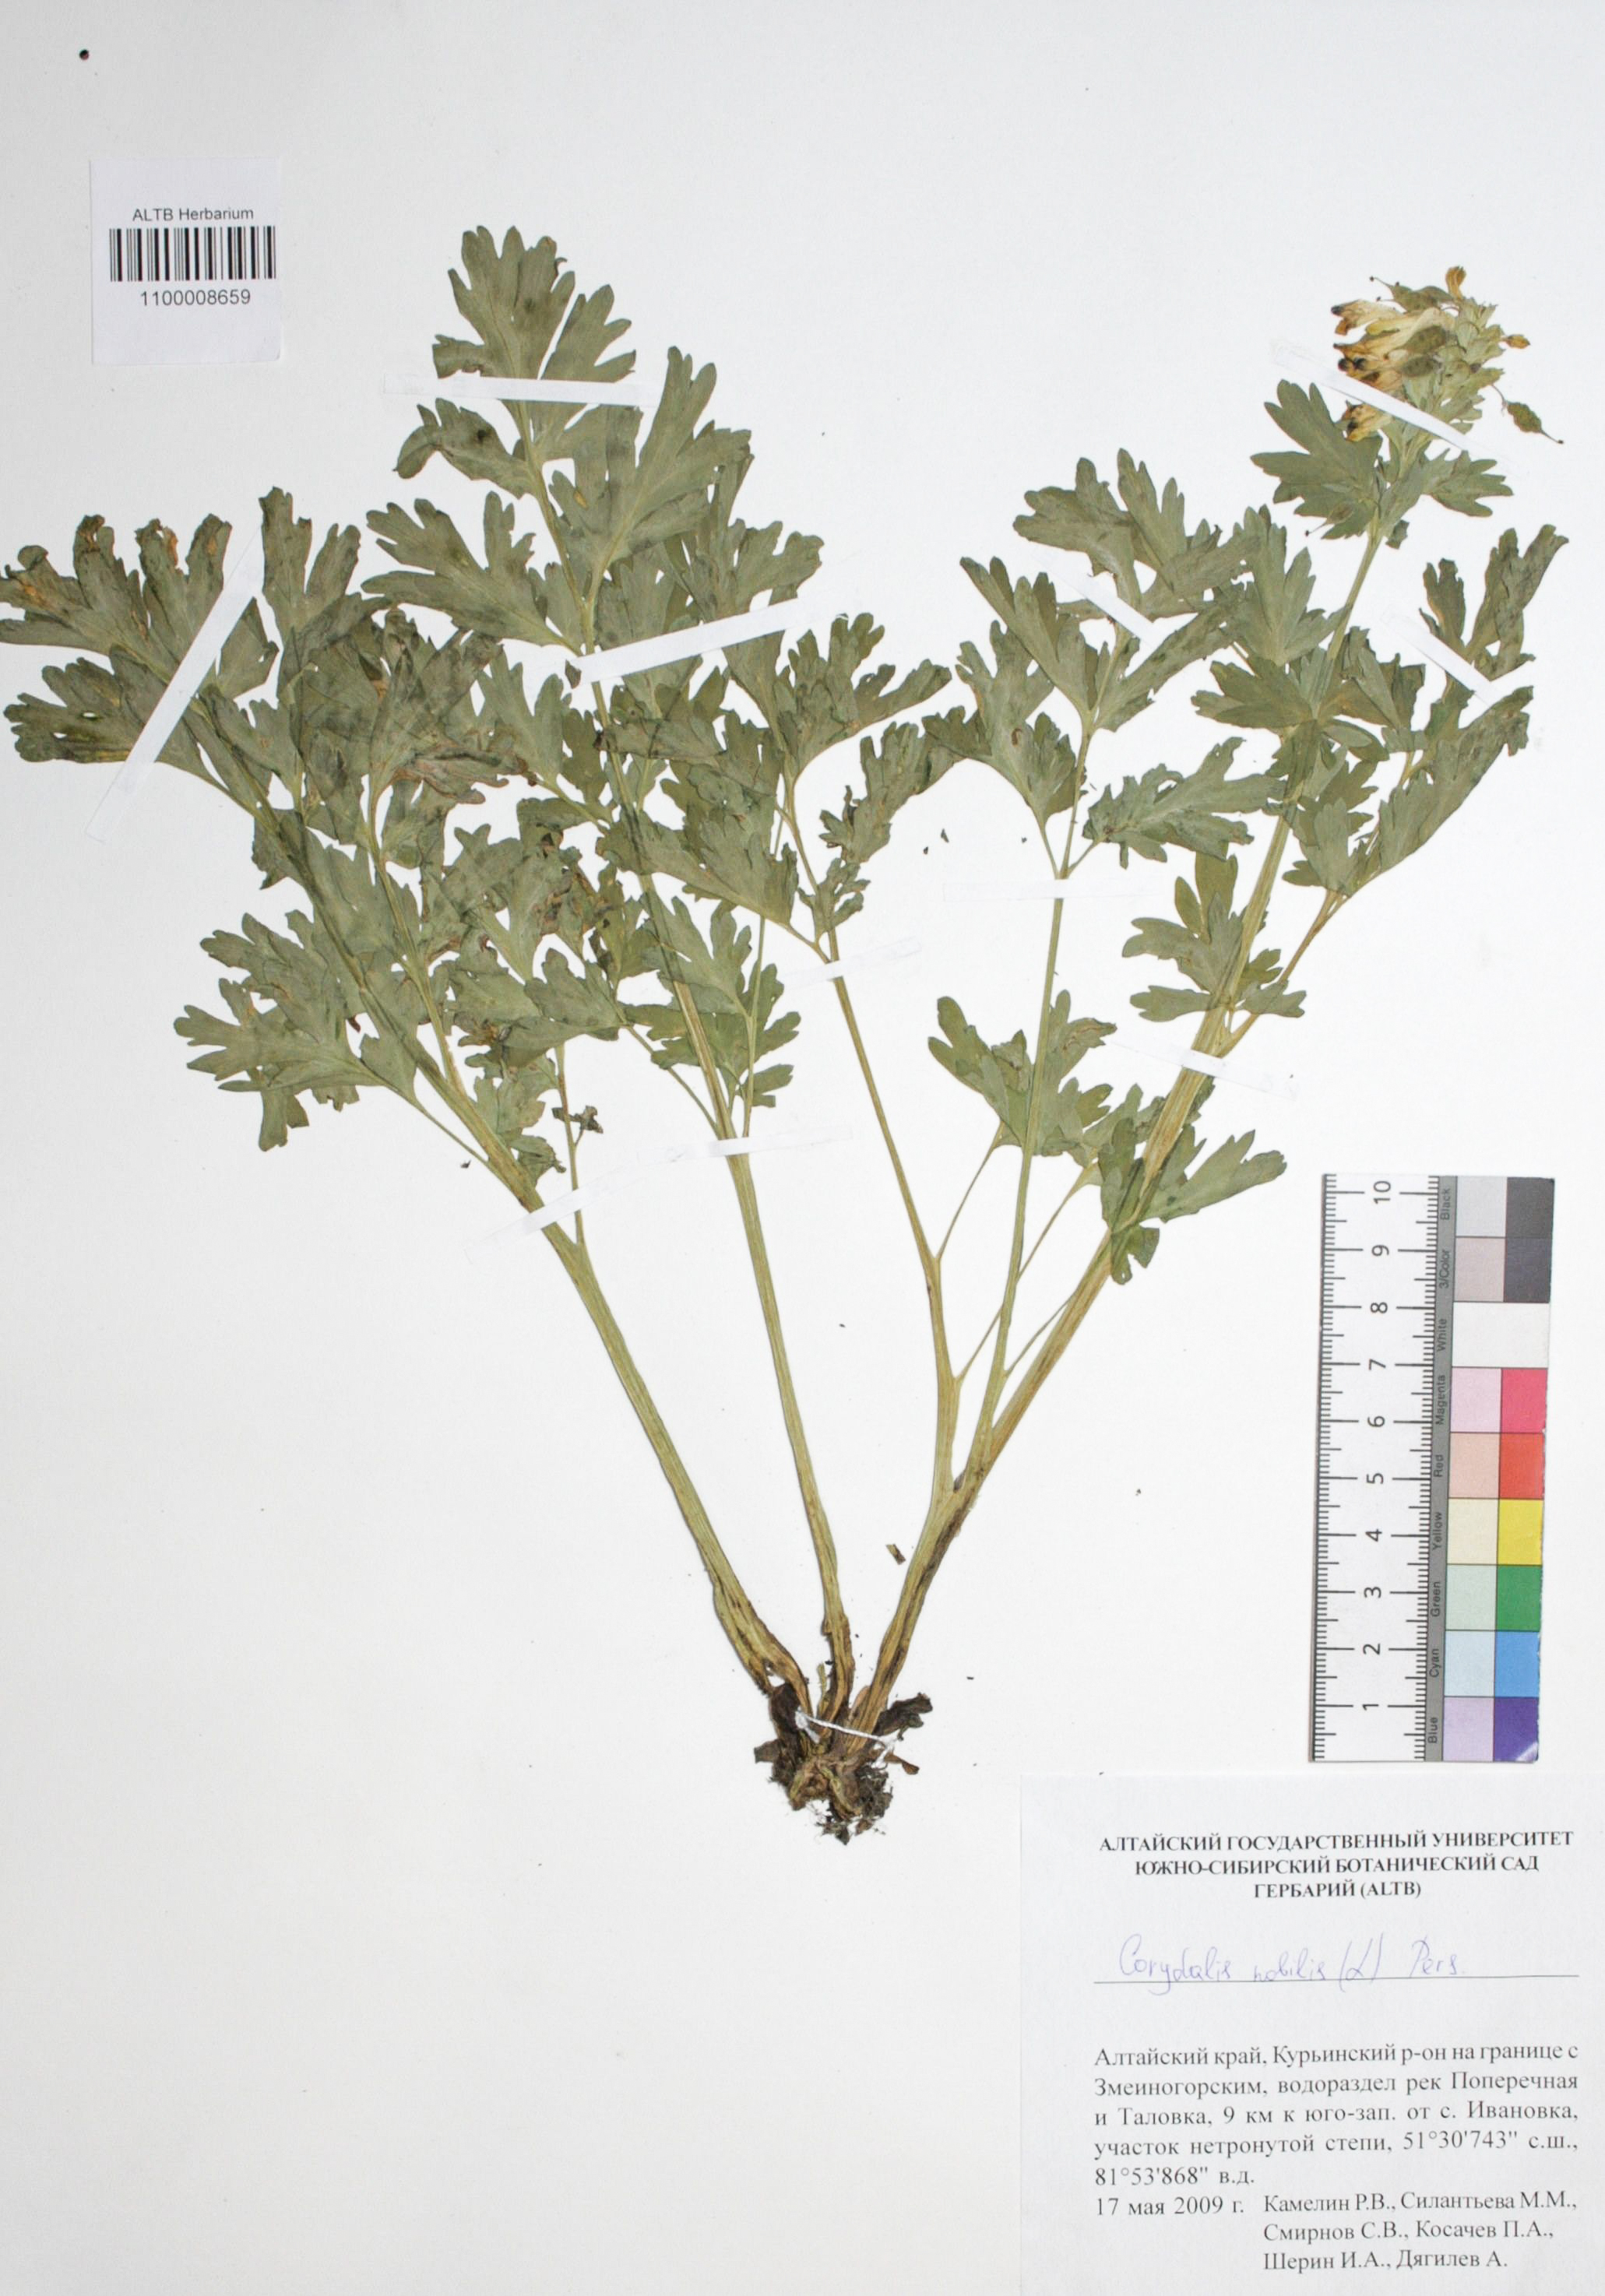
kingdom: Plantae
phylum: Tracheophyta
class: Magnoliopsida
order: Ranunculales
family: Papaveraceae
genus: Corydalis
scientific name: Corydalis nobilis
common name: Siberian corydalis
